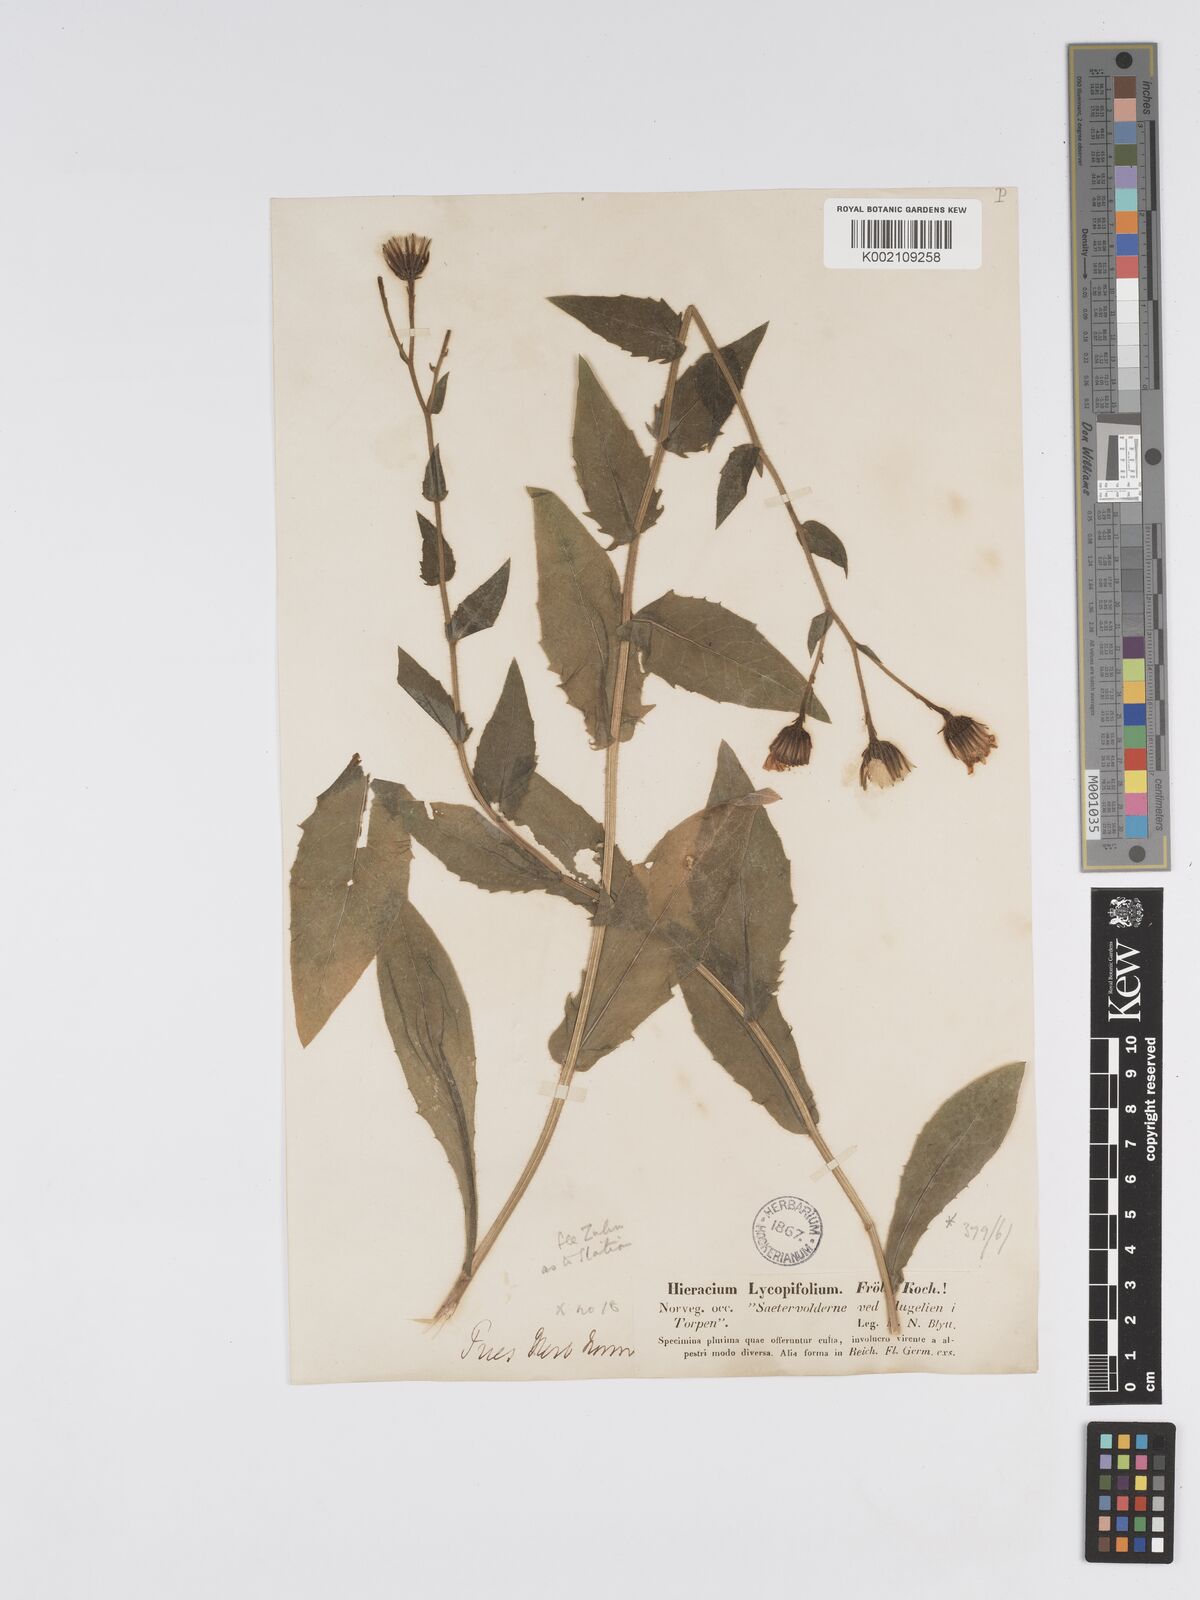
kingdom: Plantae
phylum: Tracheophyta
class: Magnoliopsida
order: Asterales
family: Asteraceae
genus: Hieracium
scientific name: Hieracium lycopifolium
